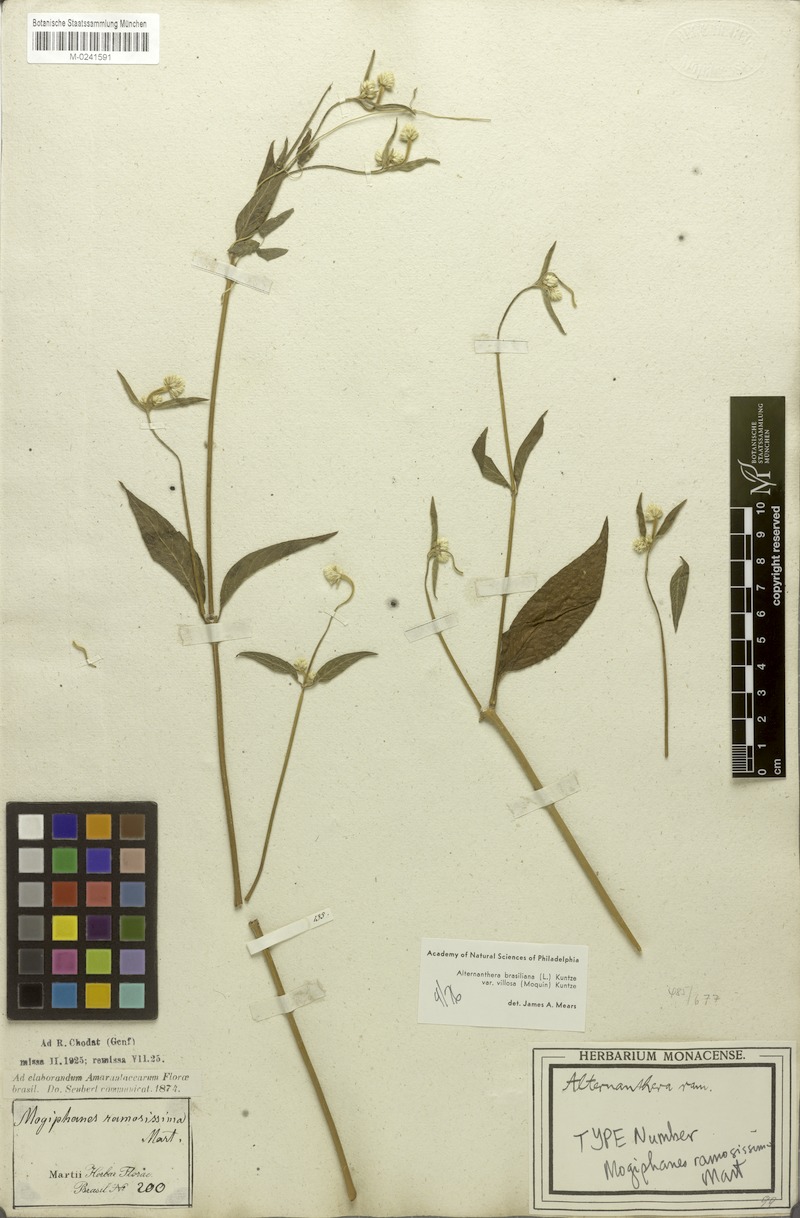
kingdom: Plantae
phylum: Tracheophyta
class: Magnoliopsida
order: Caryophyllales
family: Amaranthaceae
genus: Alternanthera
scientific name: Alternanthera ramosissima
